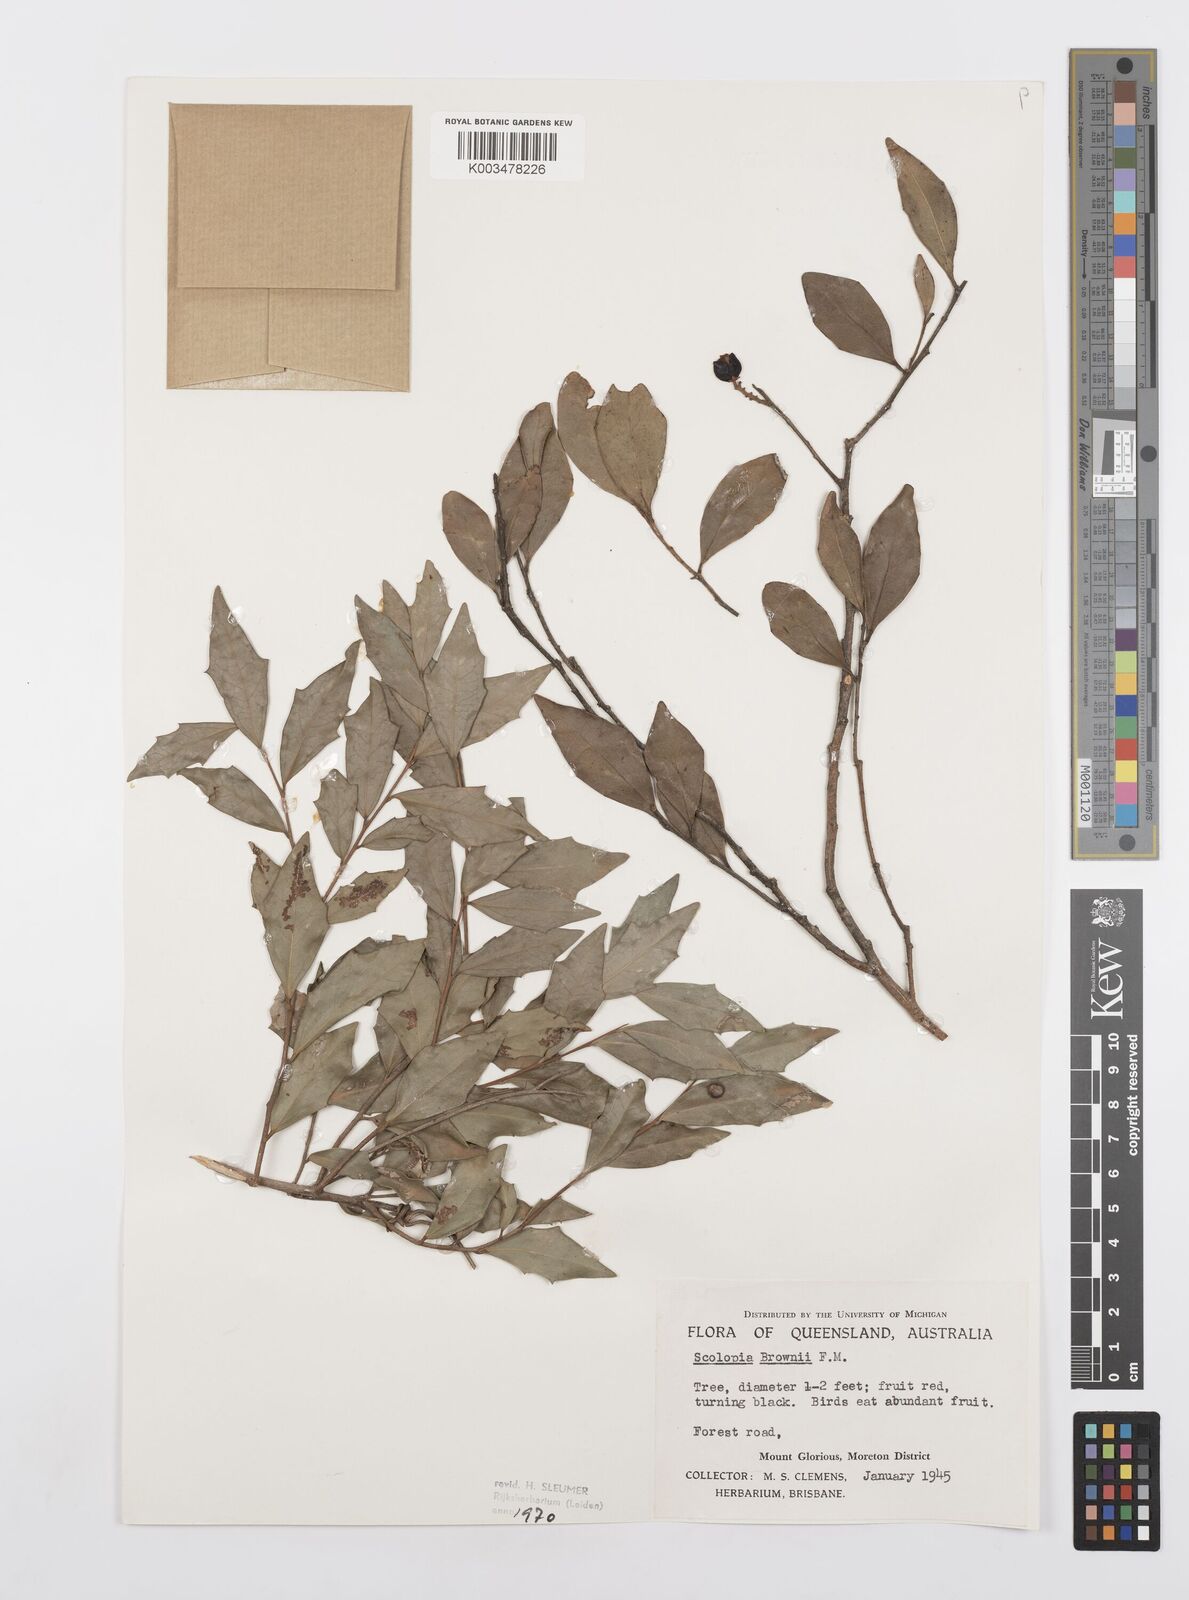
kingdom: Plantae
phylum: Tracheophyta
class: Magnoliopsida
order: Malpighiales
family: Salicaceae
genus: Scolopia
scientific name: Scolopia braunii
